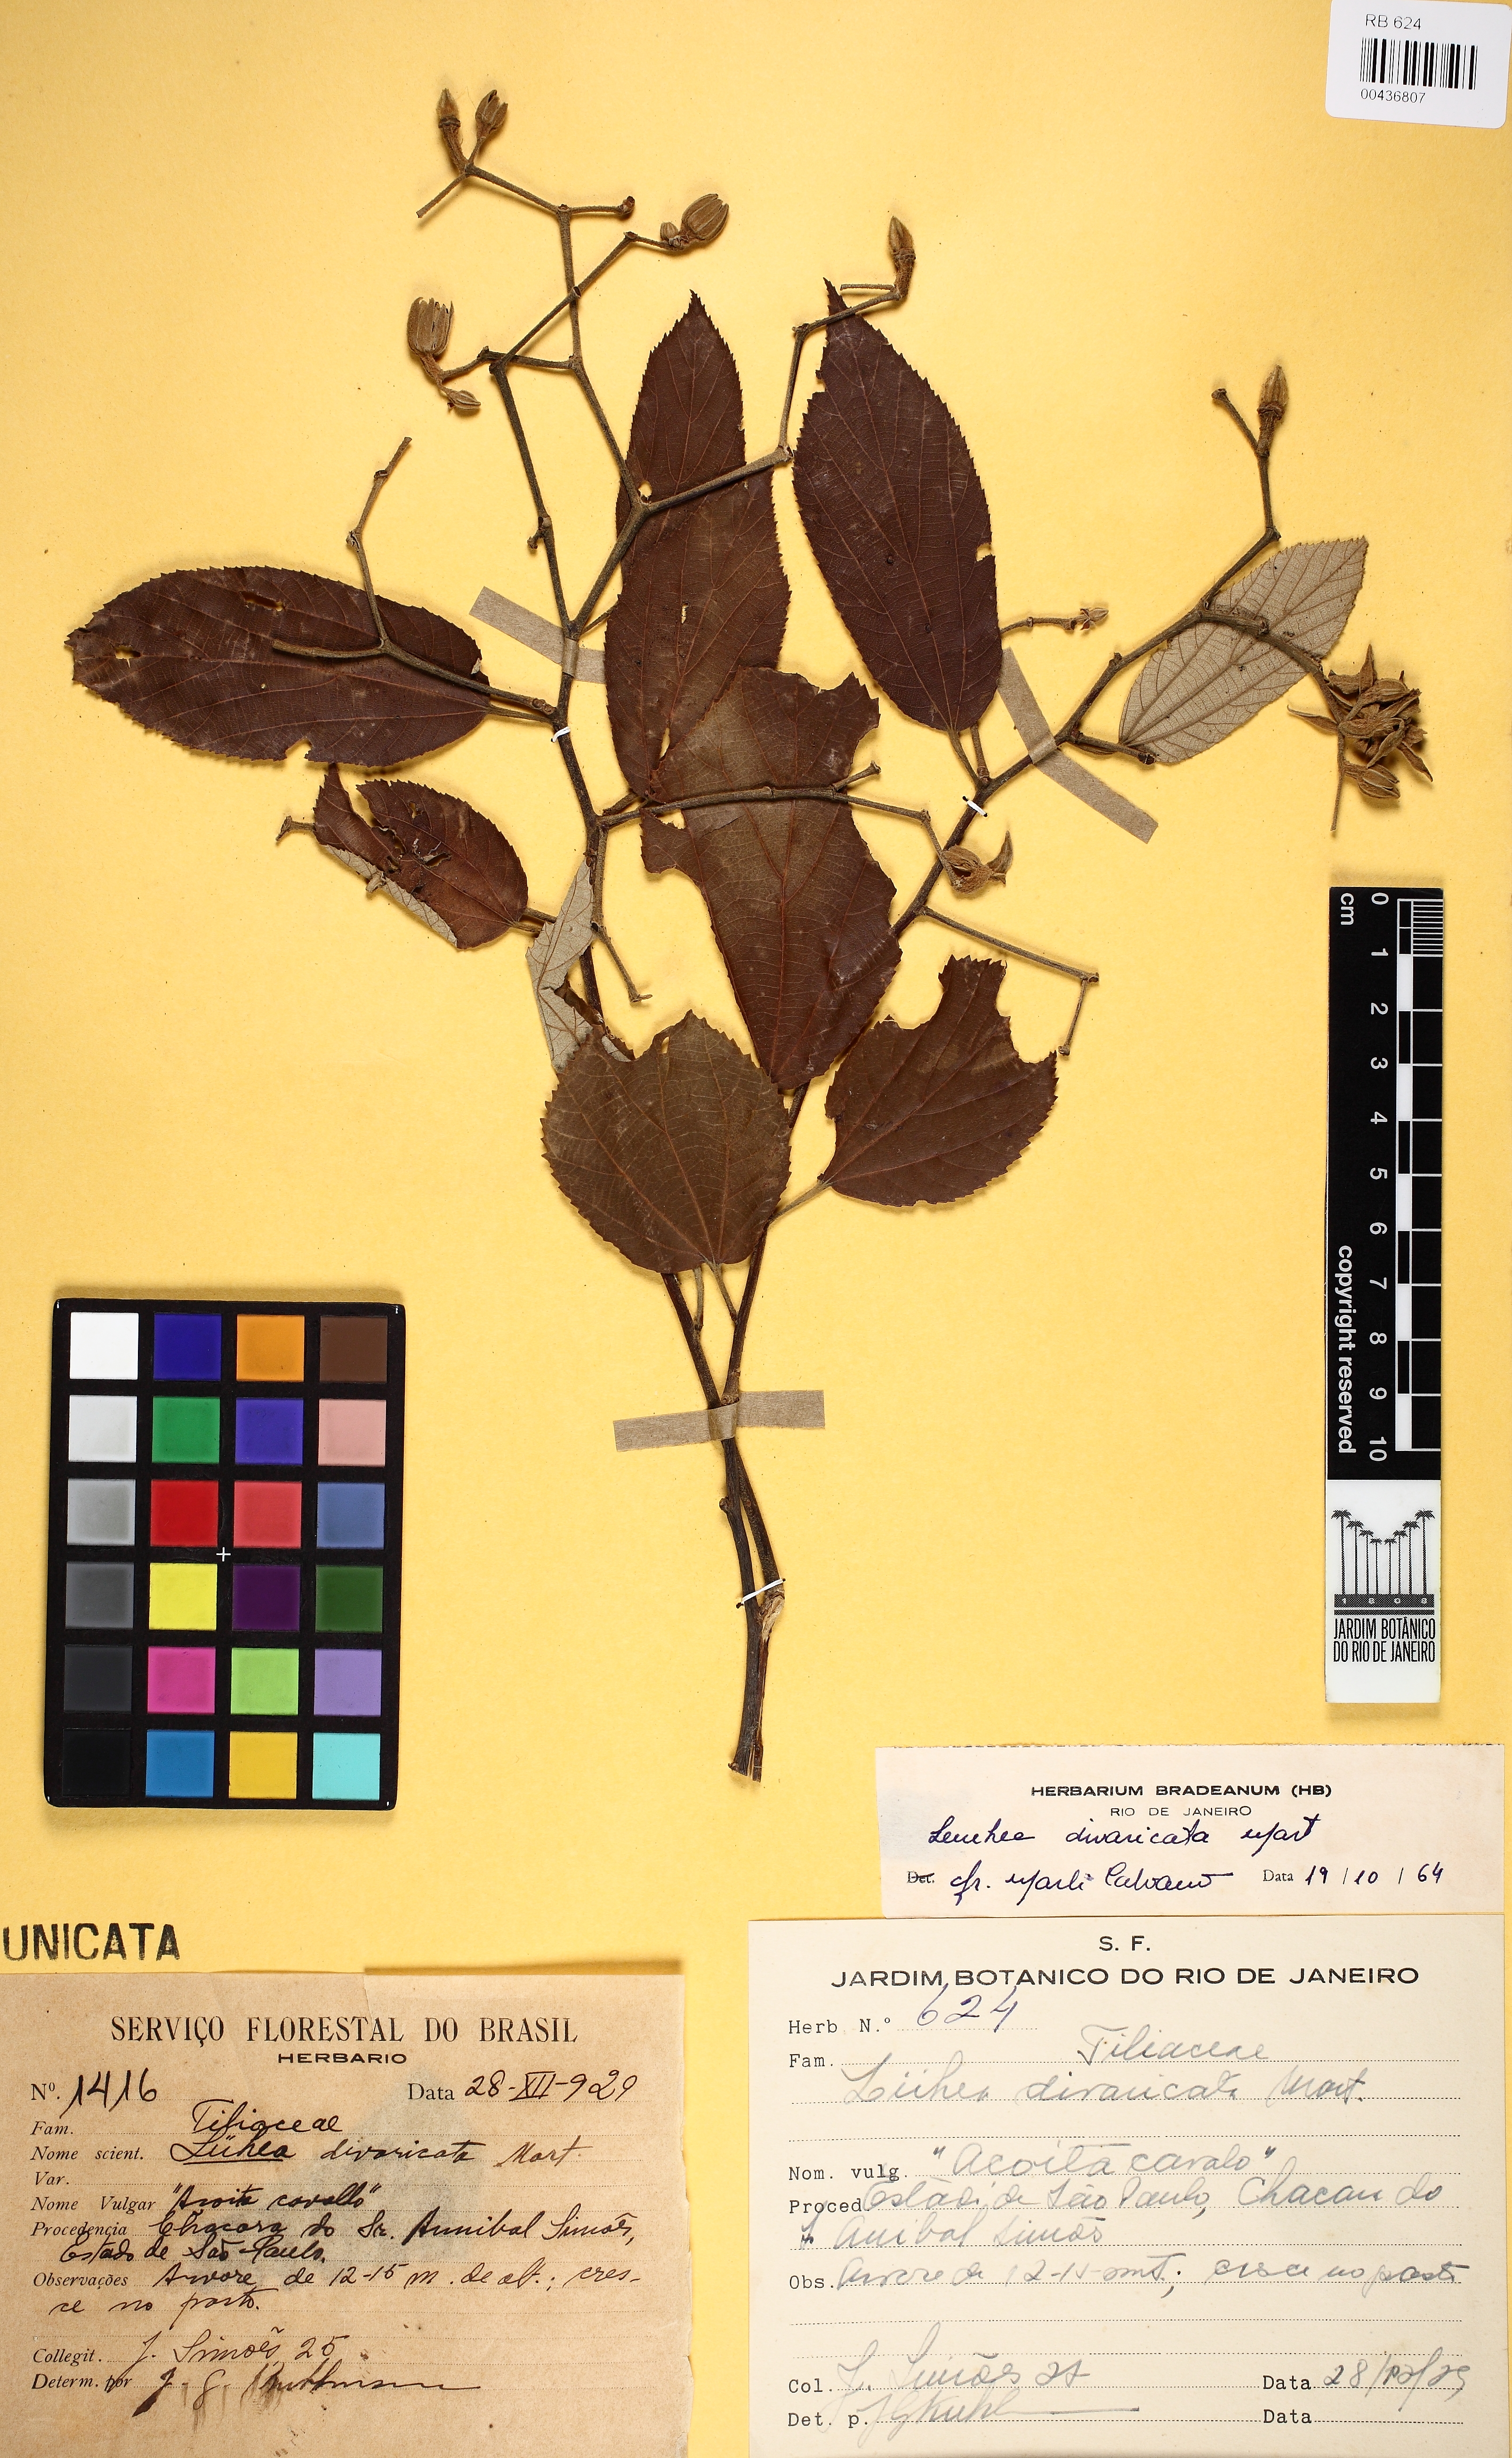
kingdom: Plantae
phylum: Tracheophyta
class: Magnoliopsida
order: Malvales
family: Malvaceae
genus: Luehea
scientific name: Luehea divaricata
